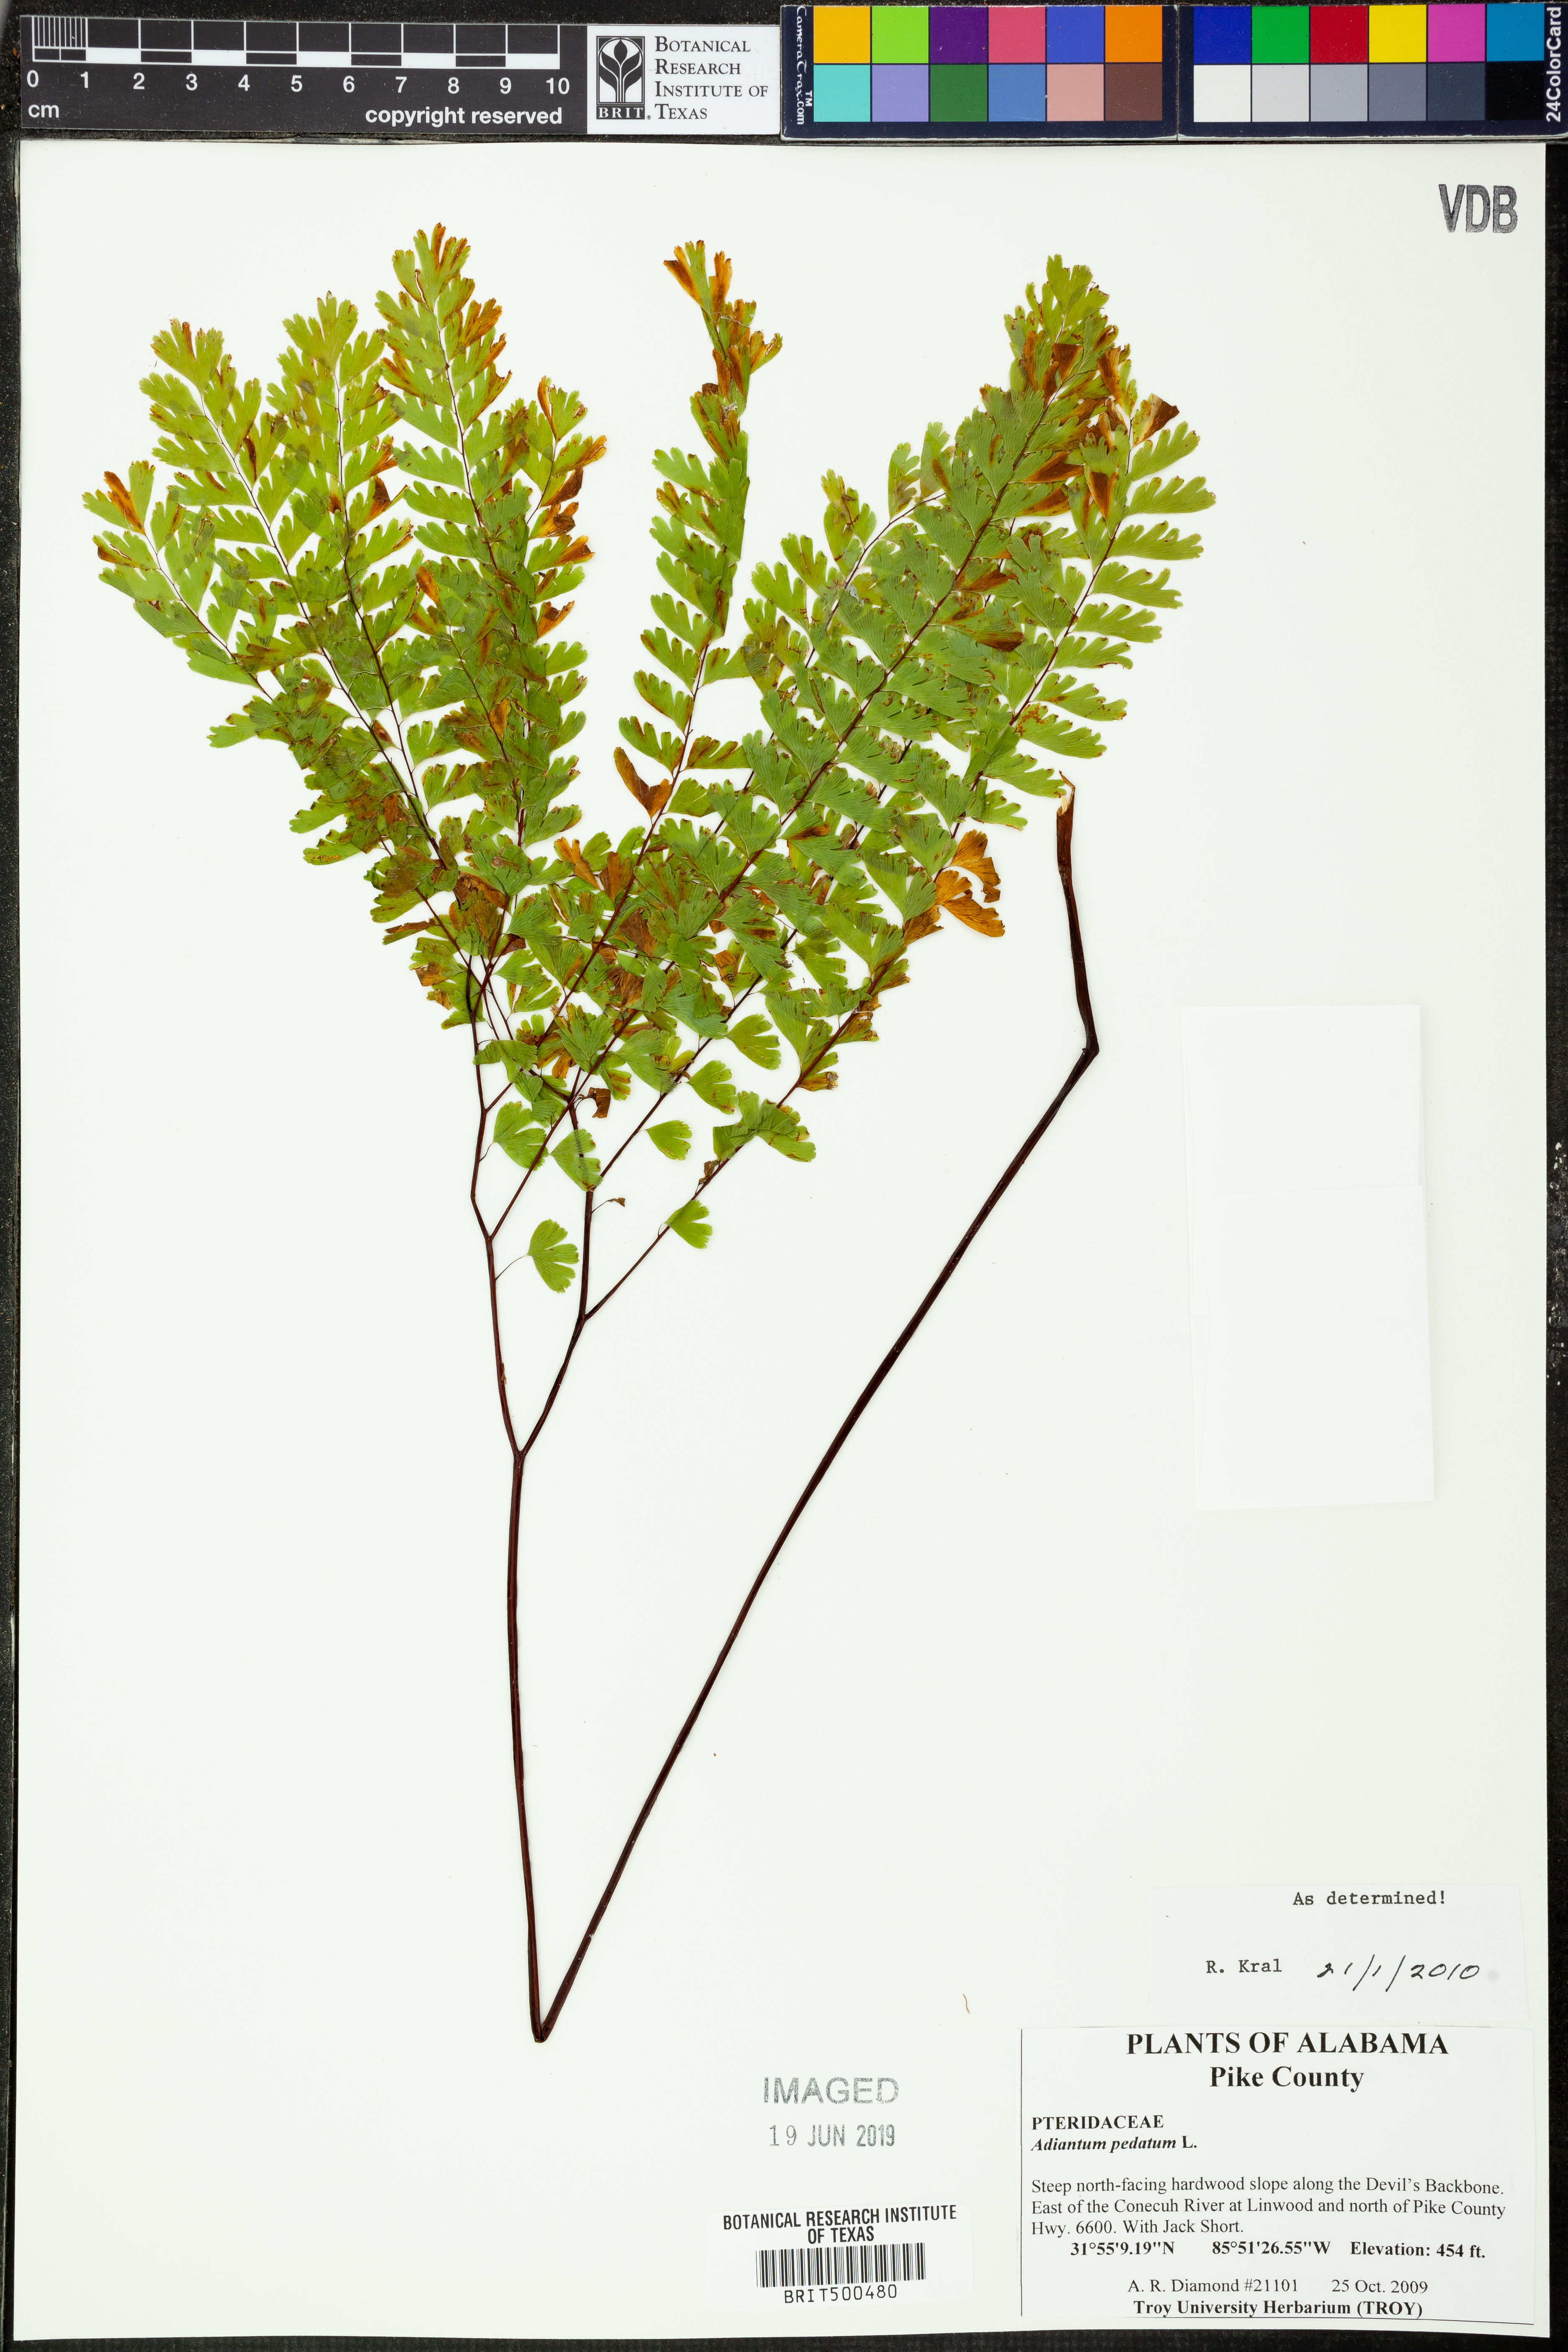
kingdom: Plantae
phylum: Tracheophyta
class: Polypodiopsida
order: Polypodiales
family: Pteridaceae
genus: Adiantum
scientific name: Adiantum pedatum
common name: Five-finger fern
